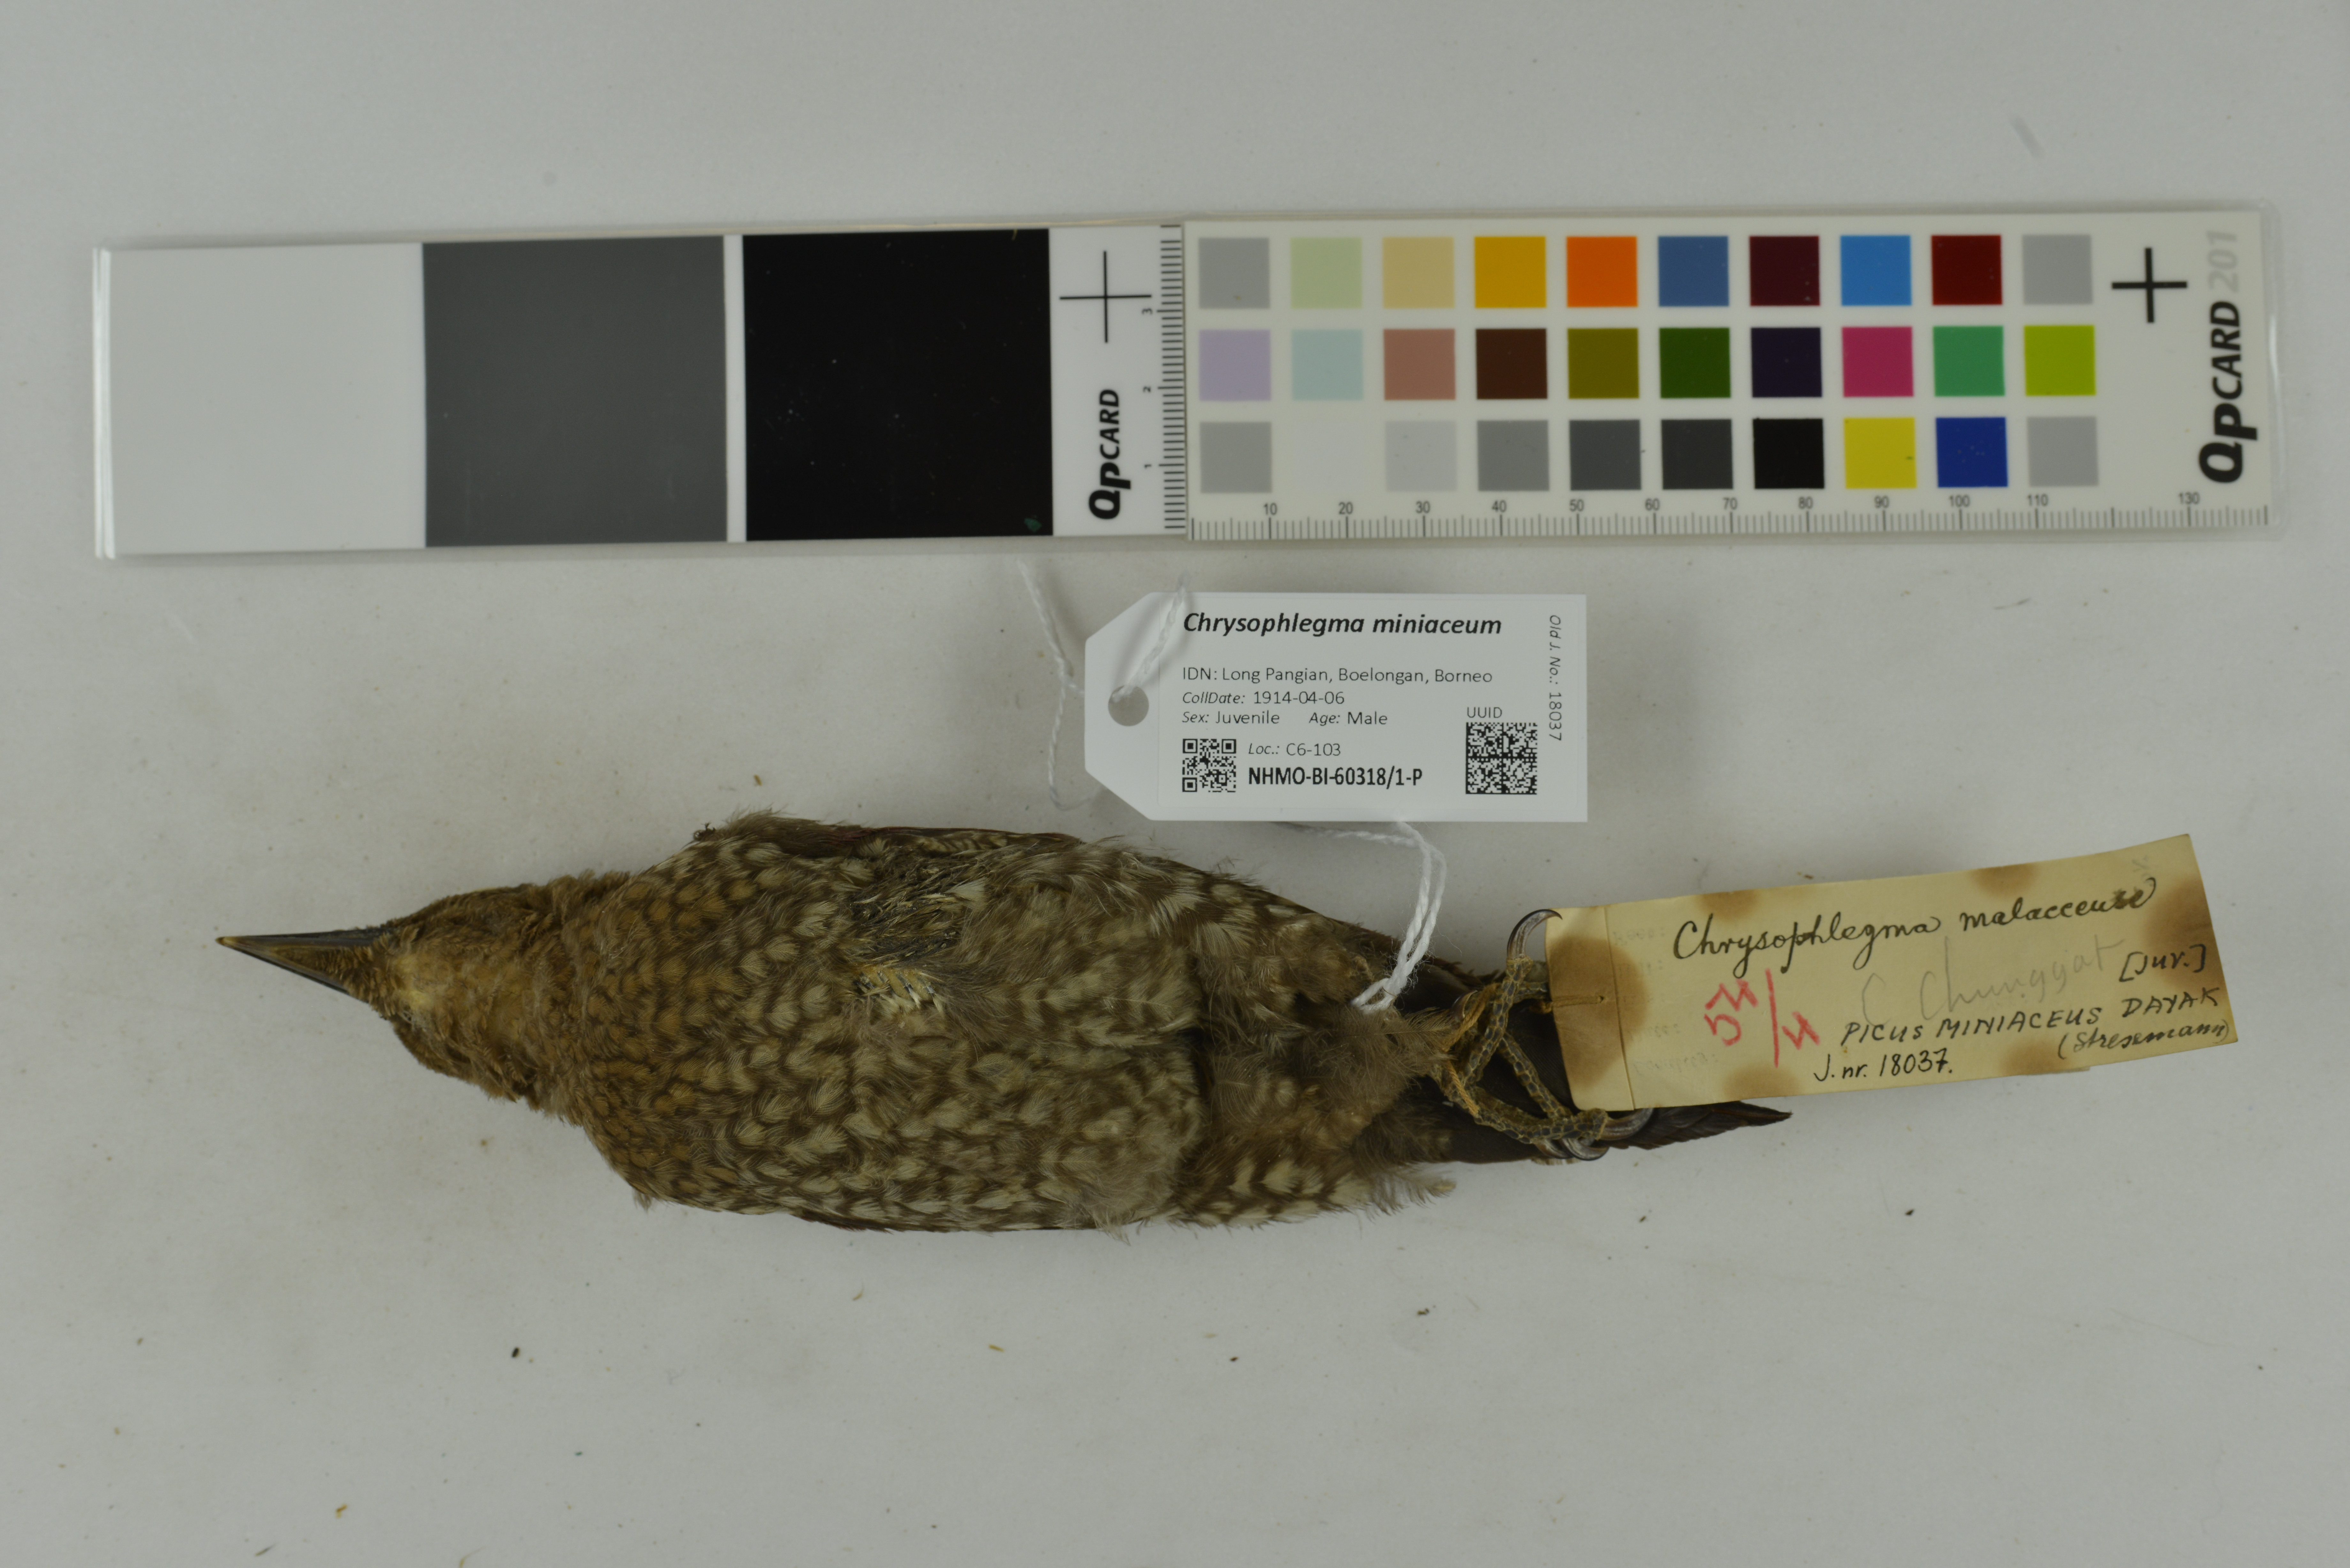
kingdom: Animalia
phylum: Chordata
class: Aves
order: Piciformes
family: Picidae
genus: Chrysophlegma
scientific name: Chrysophlegma miniaceum
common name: Banded woodpecker
